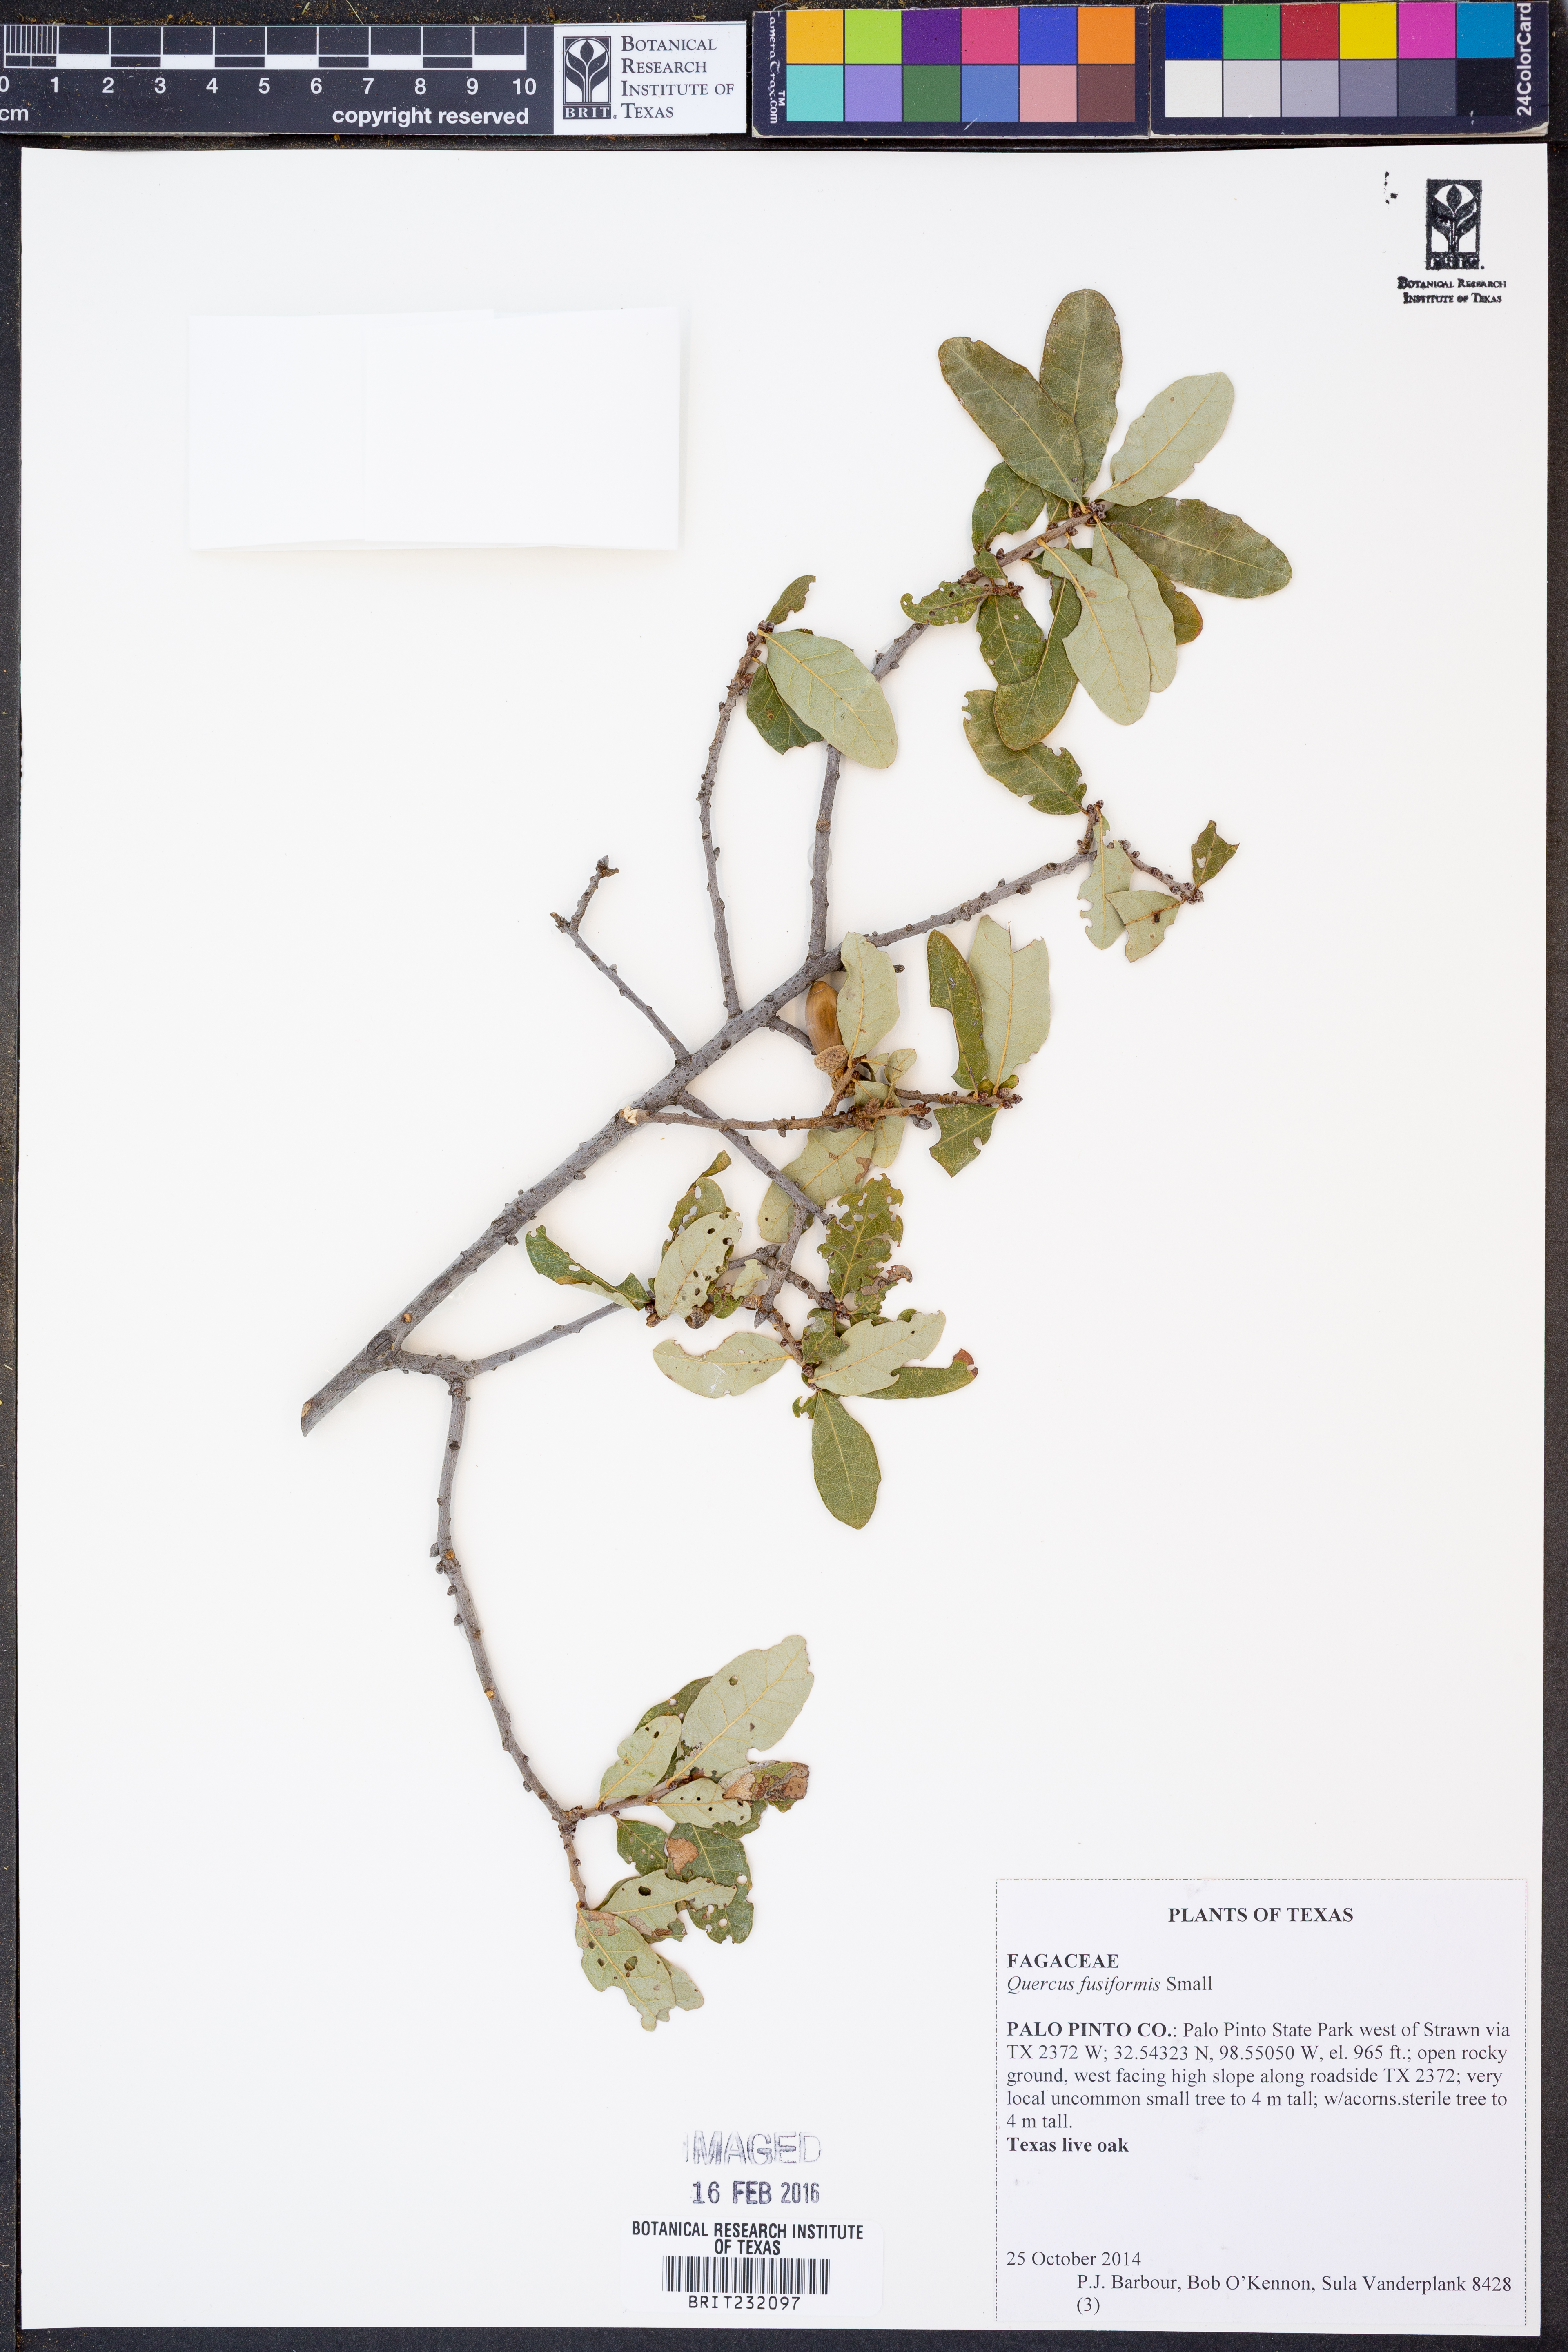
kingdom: Plantae
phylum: Tracheophyta
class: Magnoliopsida
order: Fagales
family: Fagaceae
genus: Quercus
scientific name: Quercus fusiformis
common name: Texas live oak
